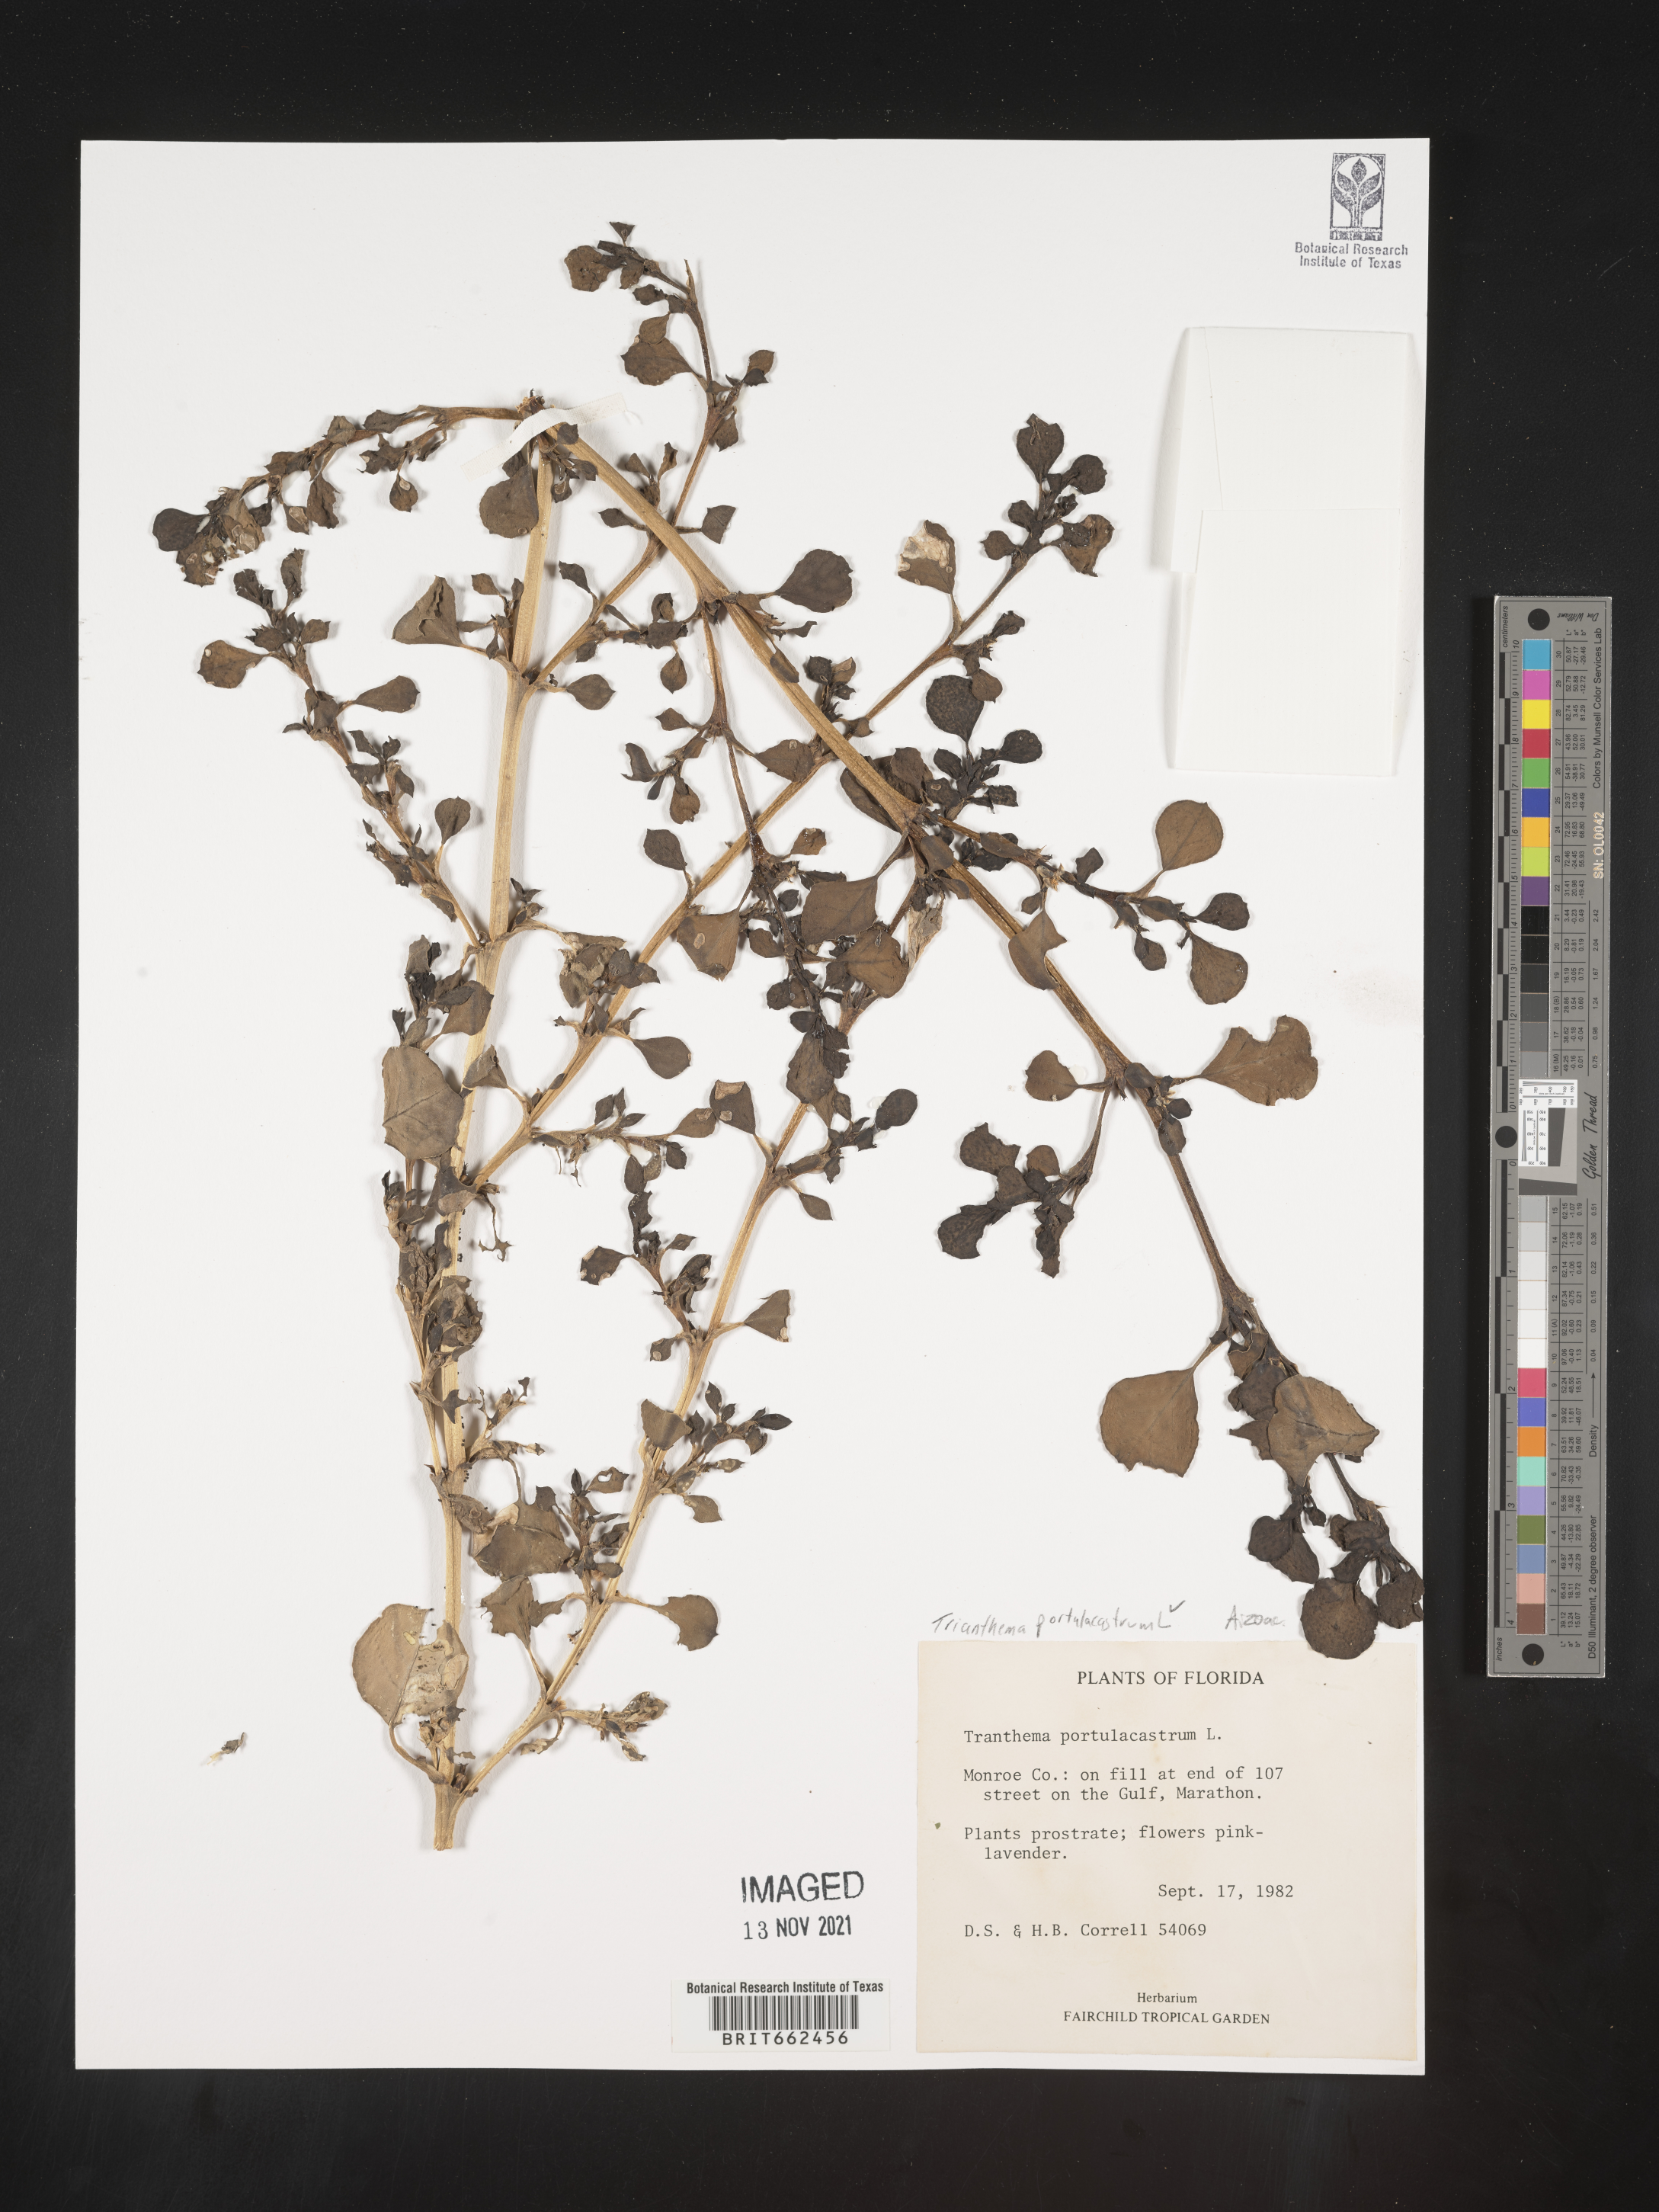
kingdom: Plantae
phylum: Tracheophyta
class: Magnoliopsida
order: Caryophyllales
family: Aizoaceae
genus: Trianthema
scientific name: Trianthema
